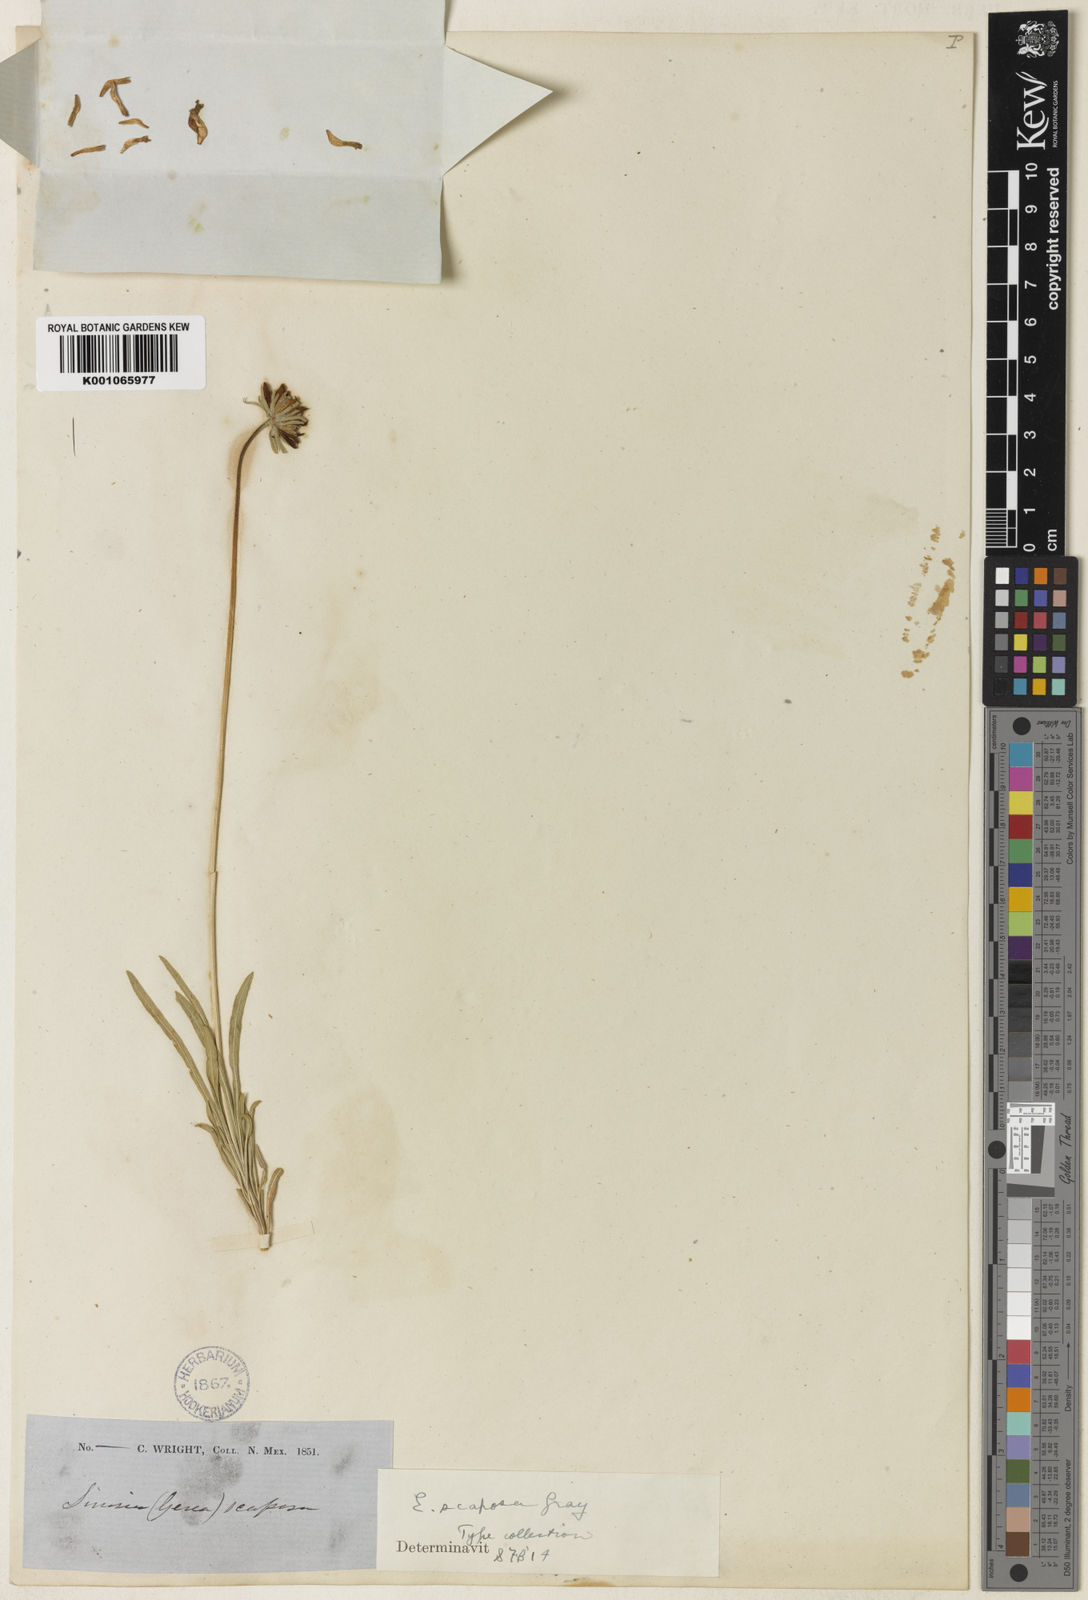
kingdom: Plantae
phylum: Tracheophyta
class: Magnoliopsida
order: Asterales
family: Asteraceae
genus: Encelia
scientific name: Encelia scaposa
